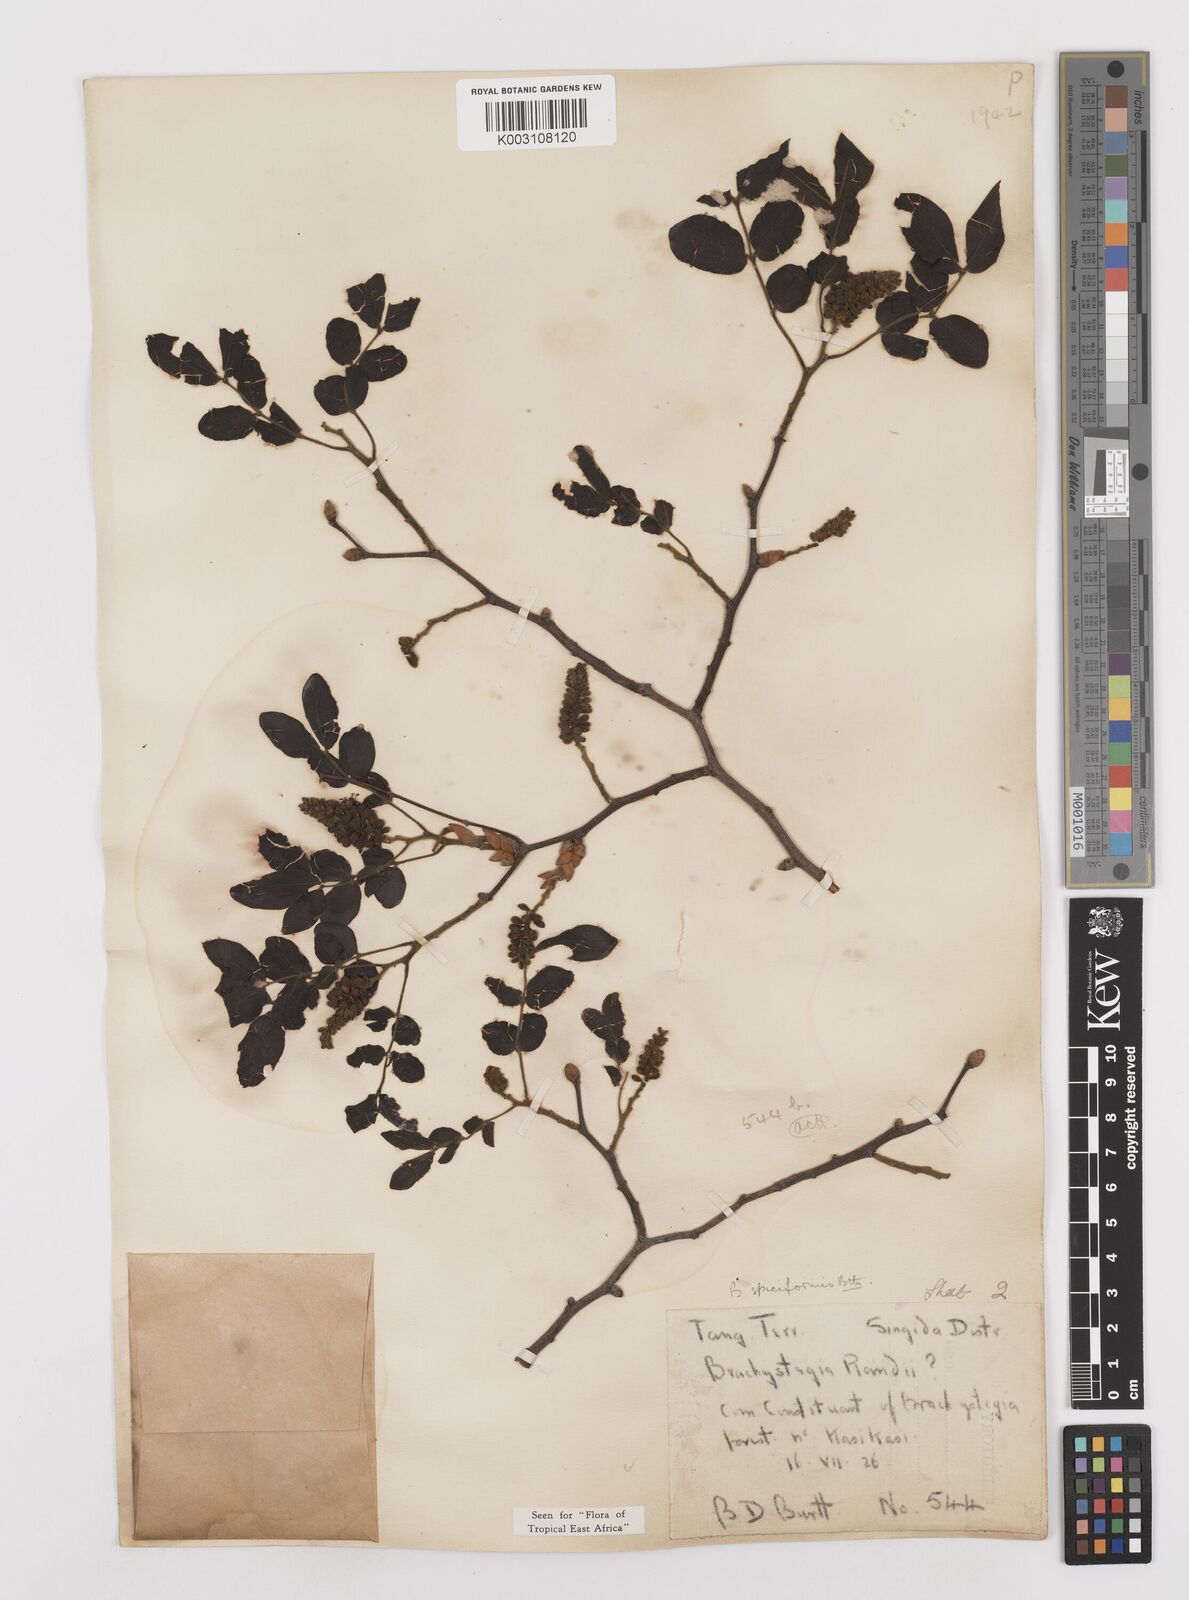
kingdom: Plantae
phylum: Tracheophyta
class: Magnoliopsida
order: Fabales
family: Fabaceae
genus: Brachystegia
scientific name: Brachystegia spiciformis
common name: Zebrawood
